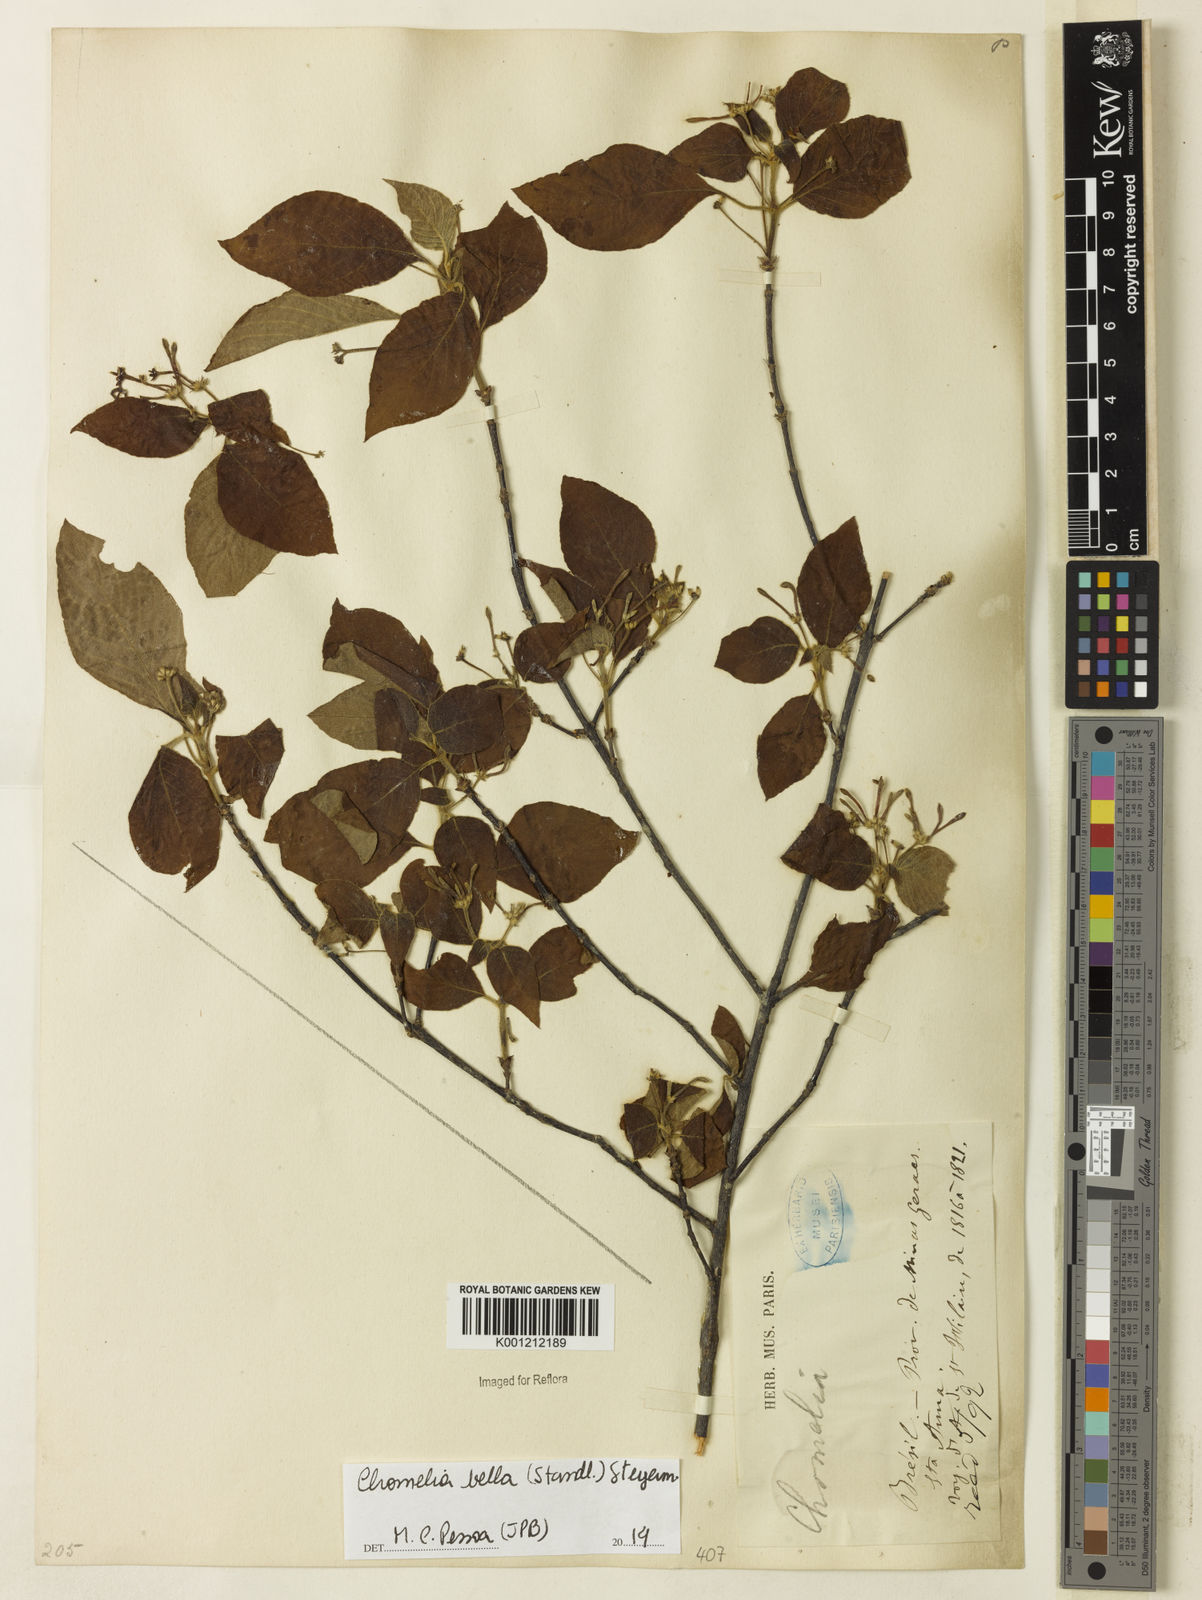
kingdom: Plantae
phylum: Tracheophyta
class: Magnoliopsida
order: Gentianales
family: Rubiaceae
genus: Chomelia
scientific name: Chomelia bella
